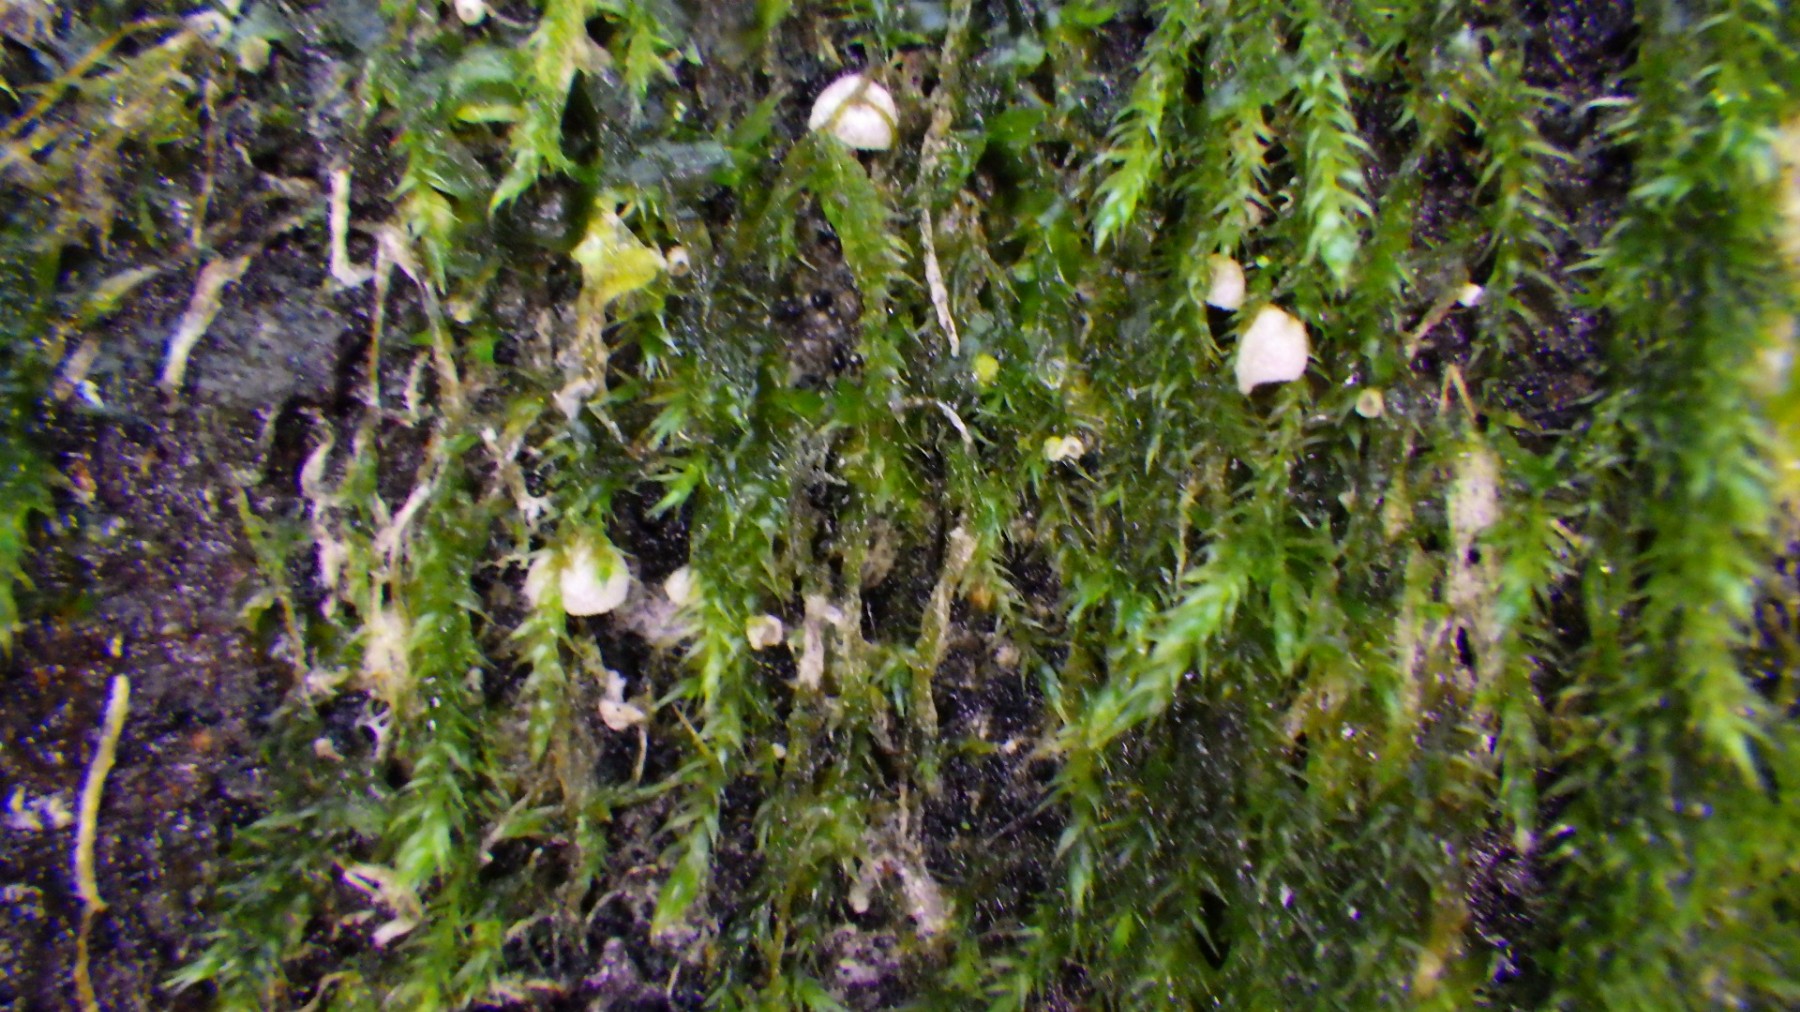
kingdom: Fungi
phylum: Basidiomycota
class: Agaricomycetes
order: Agaricales
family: Chromocyphellaceae
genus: Chromocyphella
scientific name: Chromocyphella muscicola
